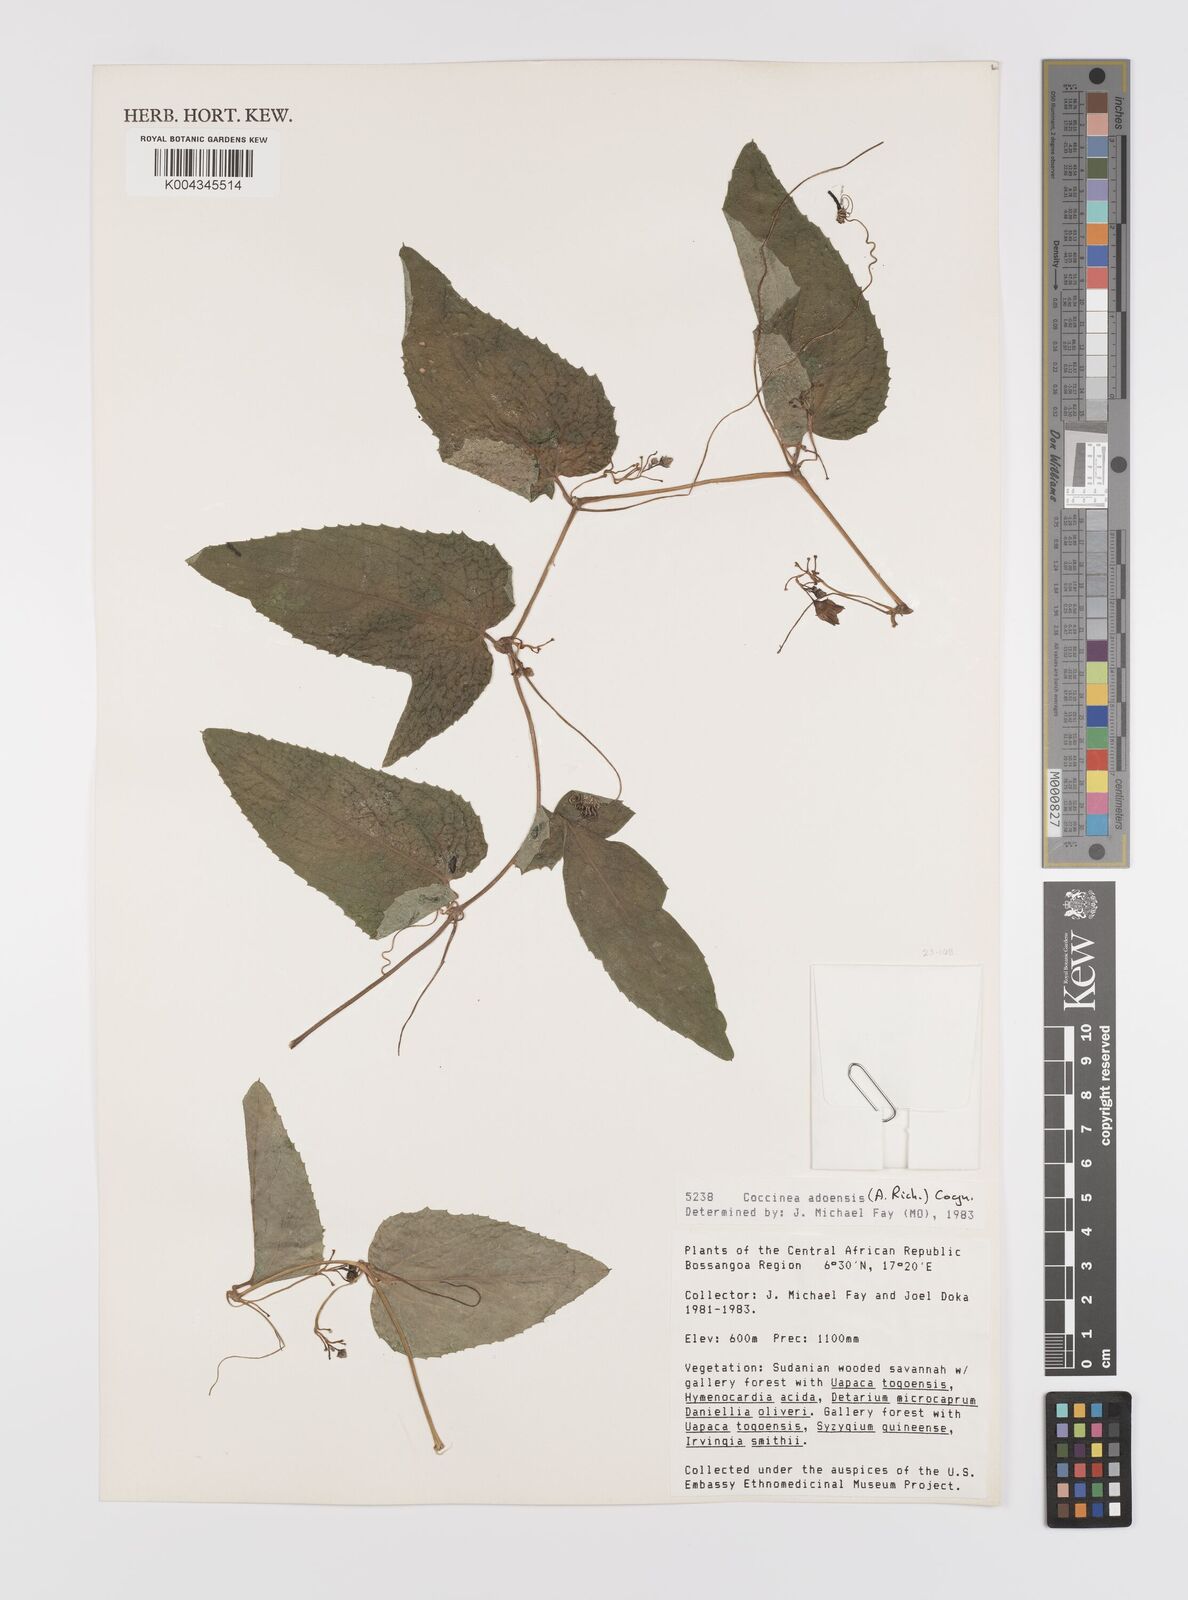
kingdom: Plantae
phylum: Tracheophyta
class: Magnoliopsida
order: Cucurbitales
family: Cucurbitaceae
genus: Coccinia
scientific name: Coccinia adoensis
